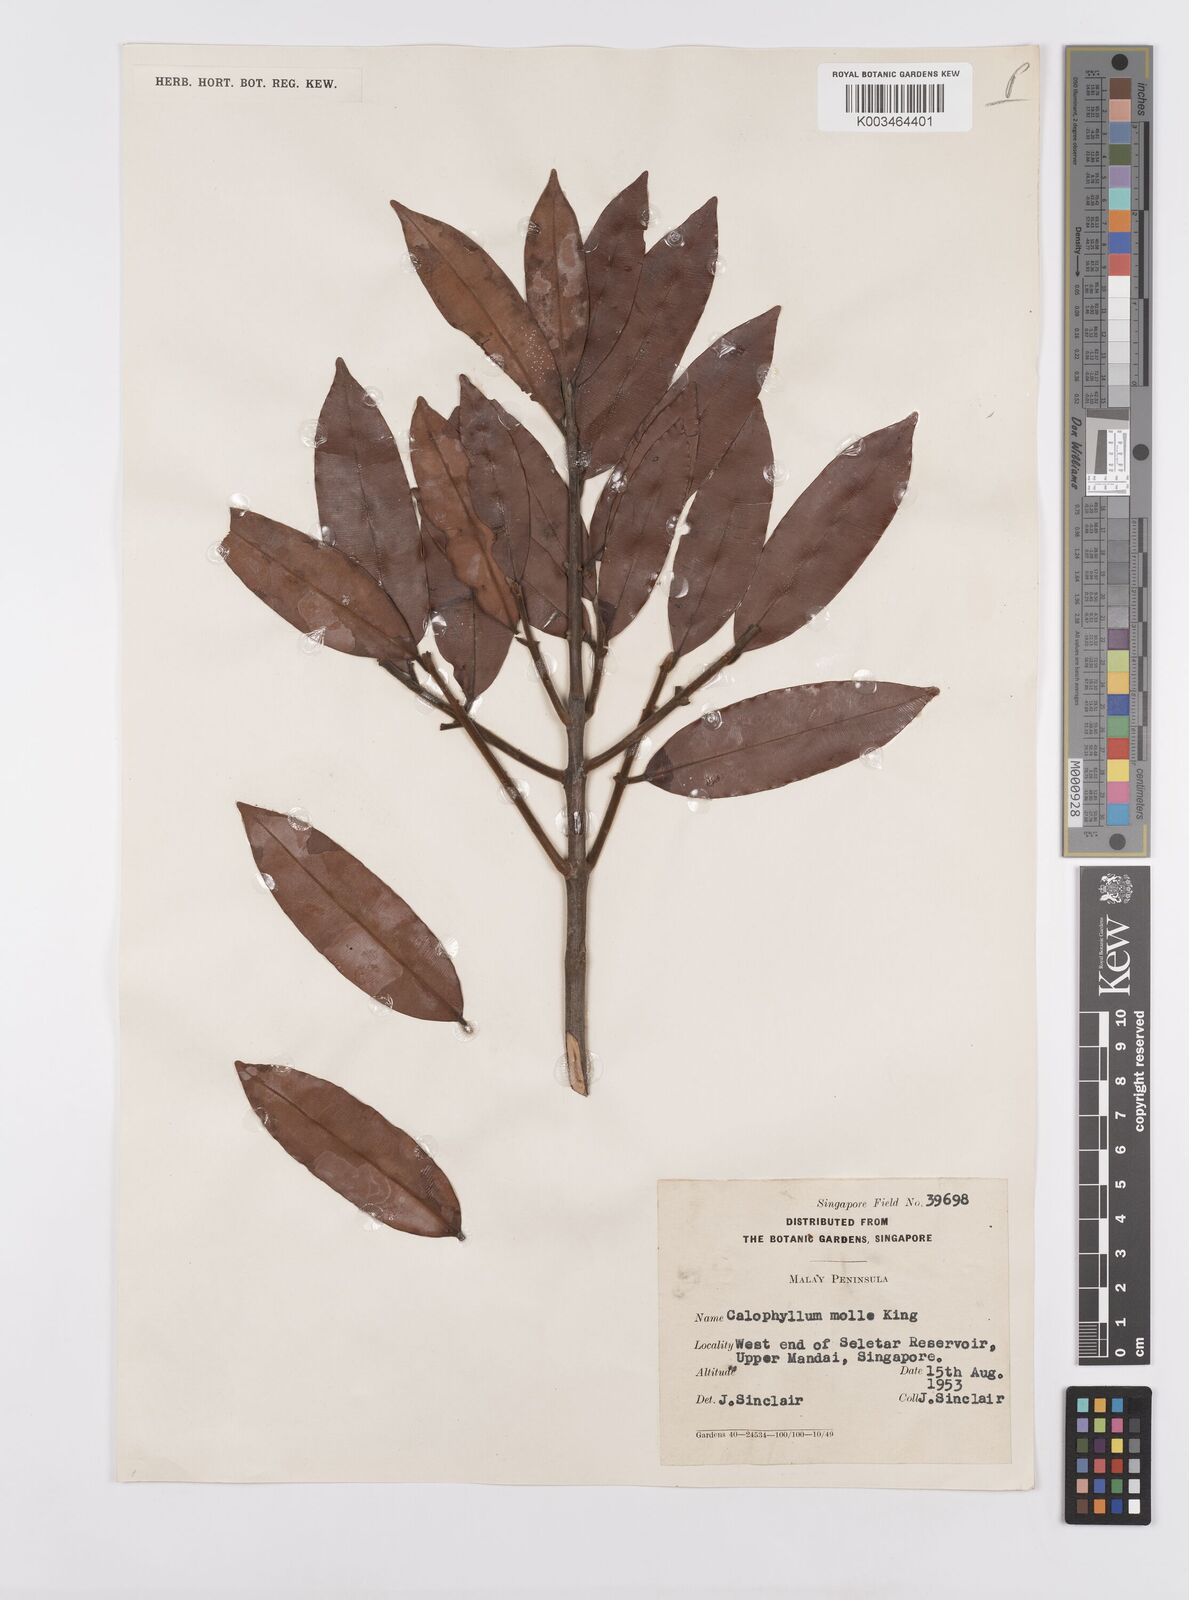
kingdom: Plantae
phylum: Tracheophyta
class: Magnoliopsida
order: Malpighiales
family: Calophyllaceae
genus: Calophyllum
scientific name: Calophyllum molle
